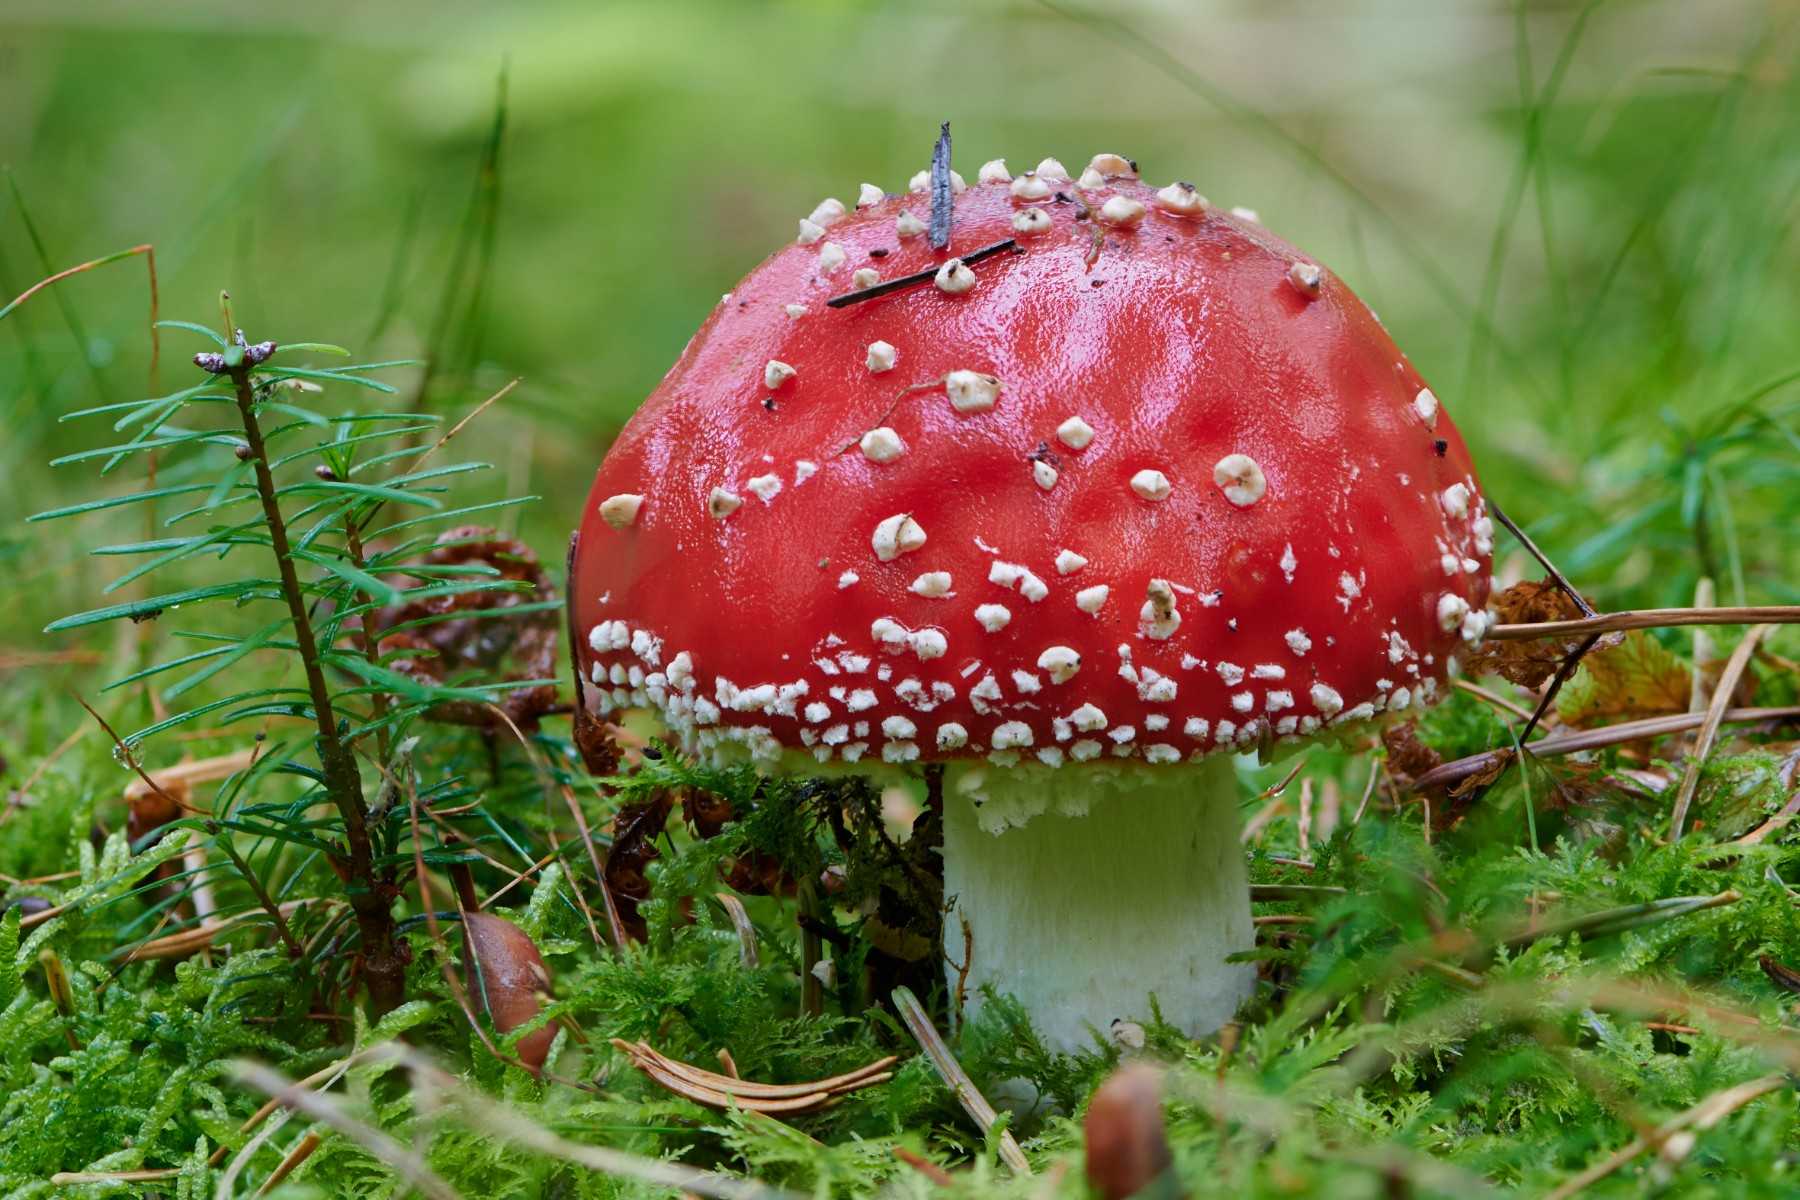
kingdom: Fungi
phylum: Basidiomycota
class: Agaricomycetes
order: Agaricales
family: Amanitaceae
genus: Amanita
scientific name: Amanita muscaria
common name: rød fluesvamp
